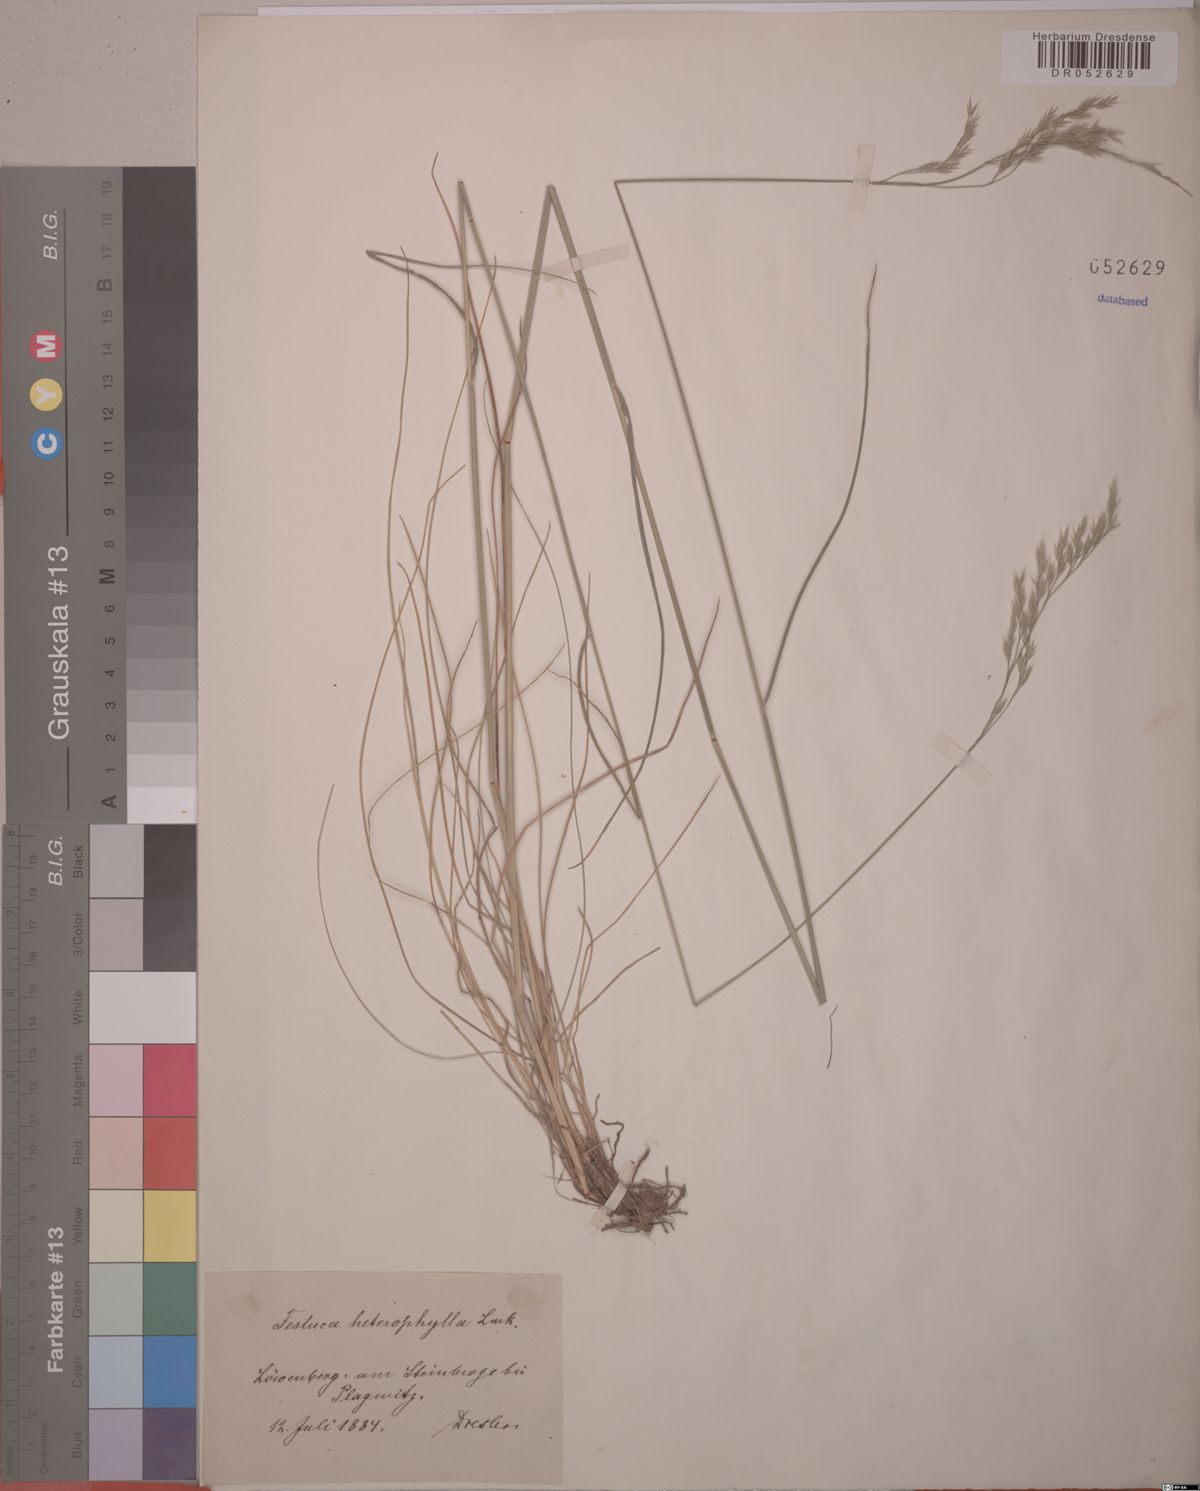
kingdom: Plantae
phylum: Tracheophyta
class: Liliopsida
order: Poales
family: Poaceae
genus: Festuca
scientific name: Festuca heterophylla
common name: Various-leaved fescue
